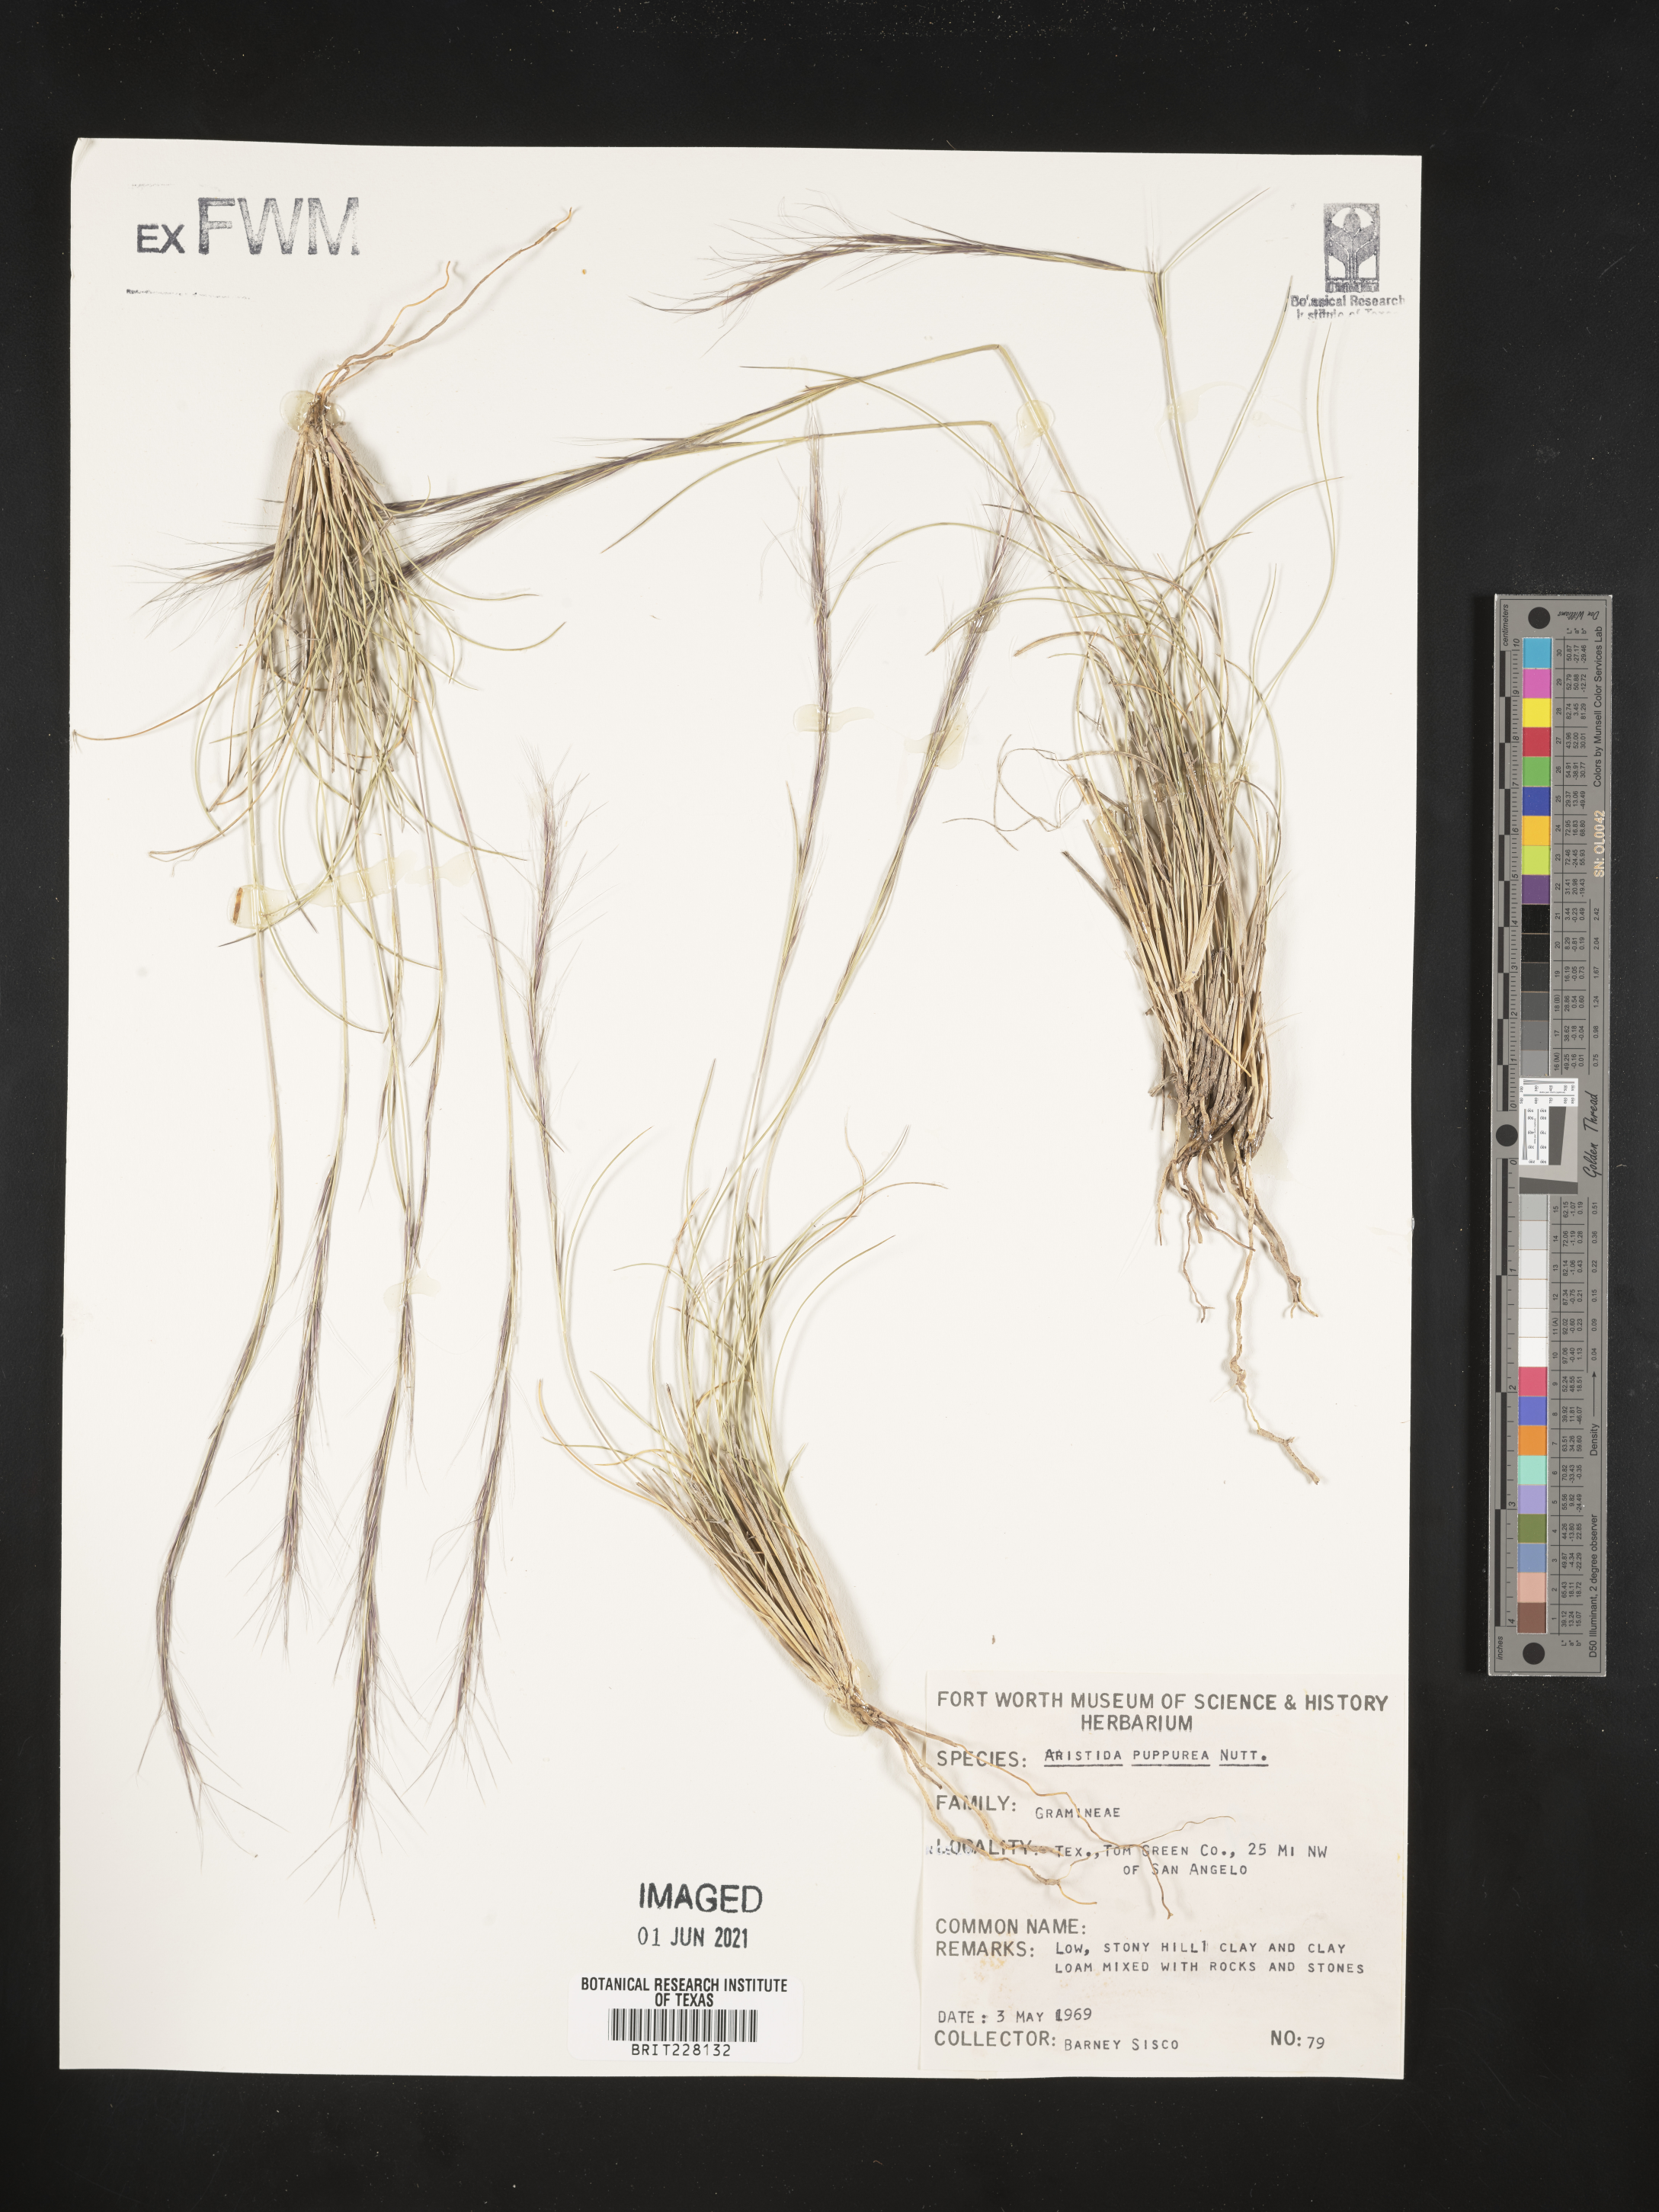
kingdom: Plantae
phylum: Tracheophyta
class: Liliopsida
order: Poales
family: Poaceae
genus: Aristida
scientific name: Aristida purpurea
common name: Purple threeawn
